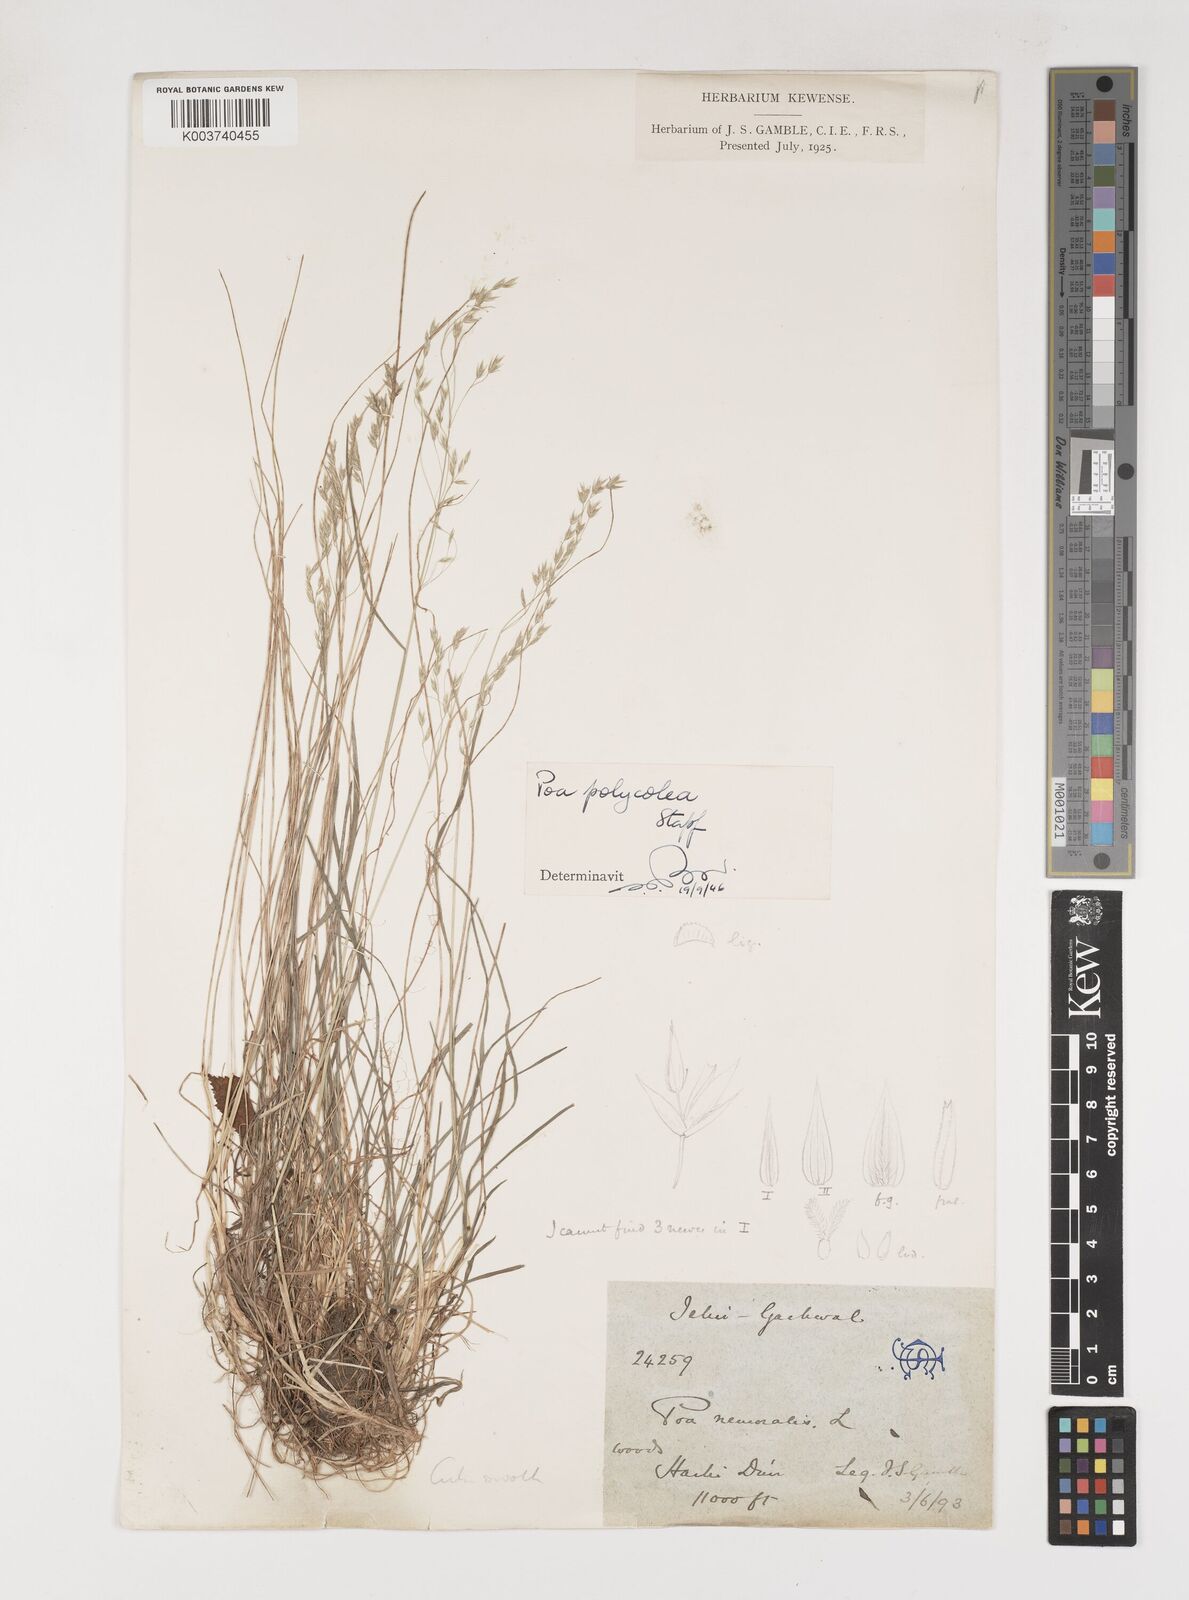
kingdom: Plantae
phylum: Tracheophyta
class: Liliopsida
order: Poales
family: Poaceae
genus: Poa
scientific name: Poa polycolea
